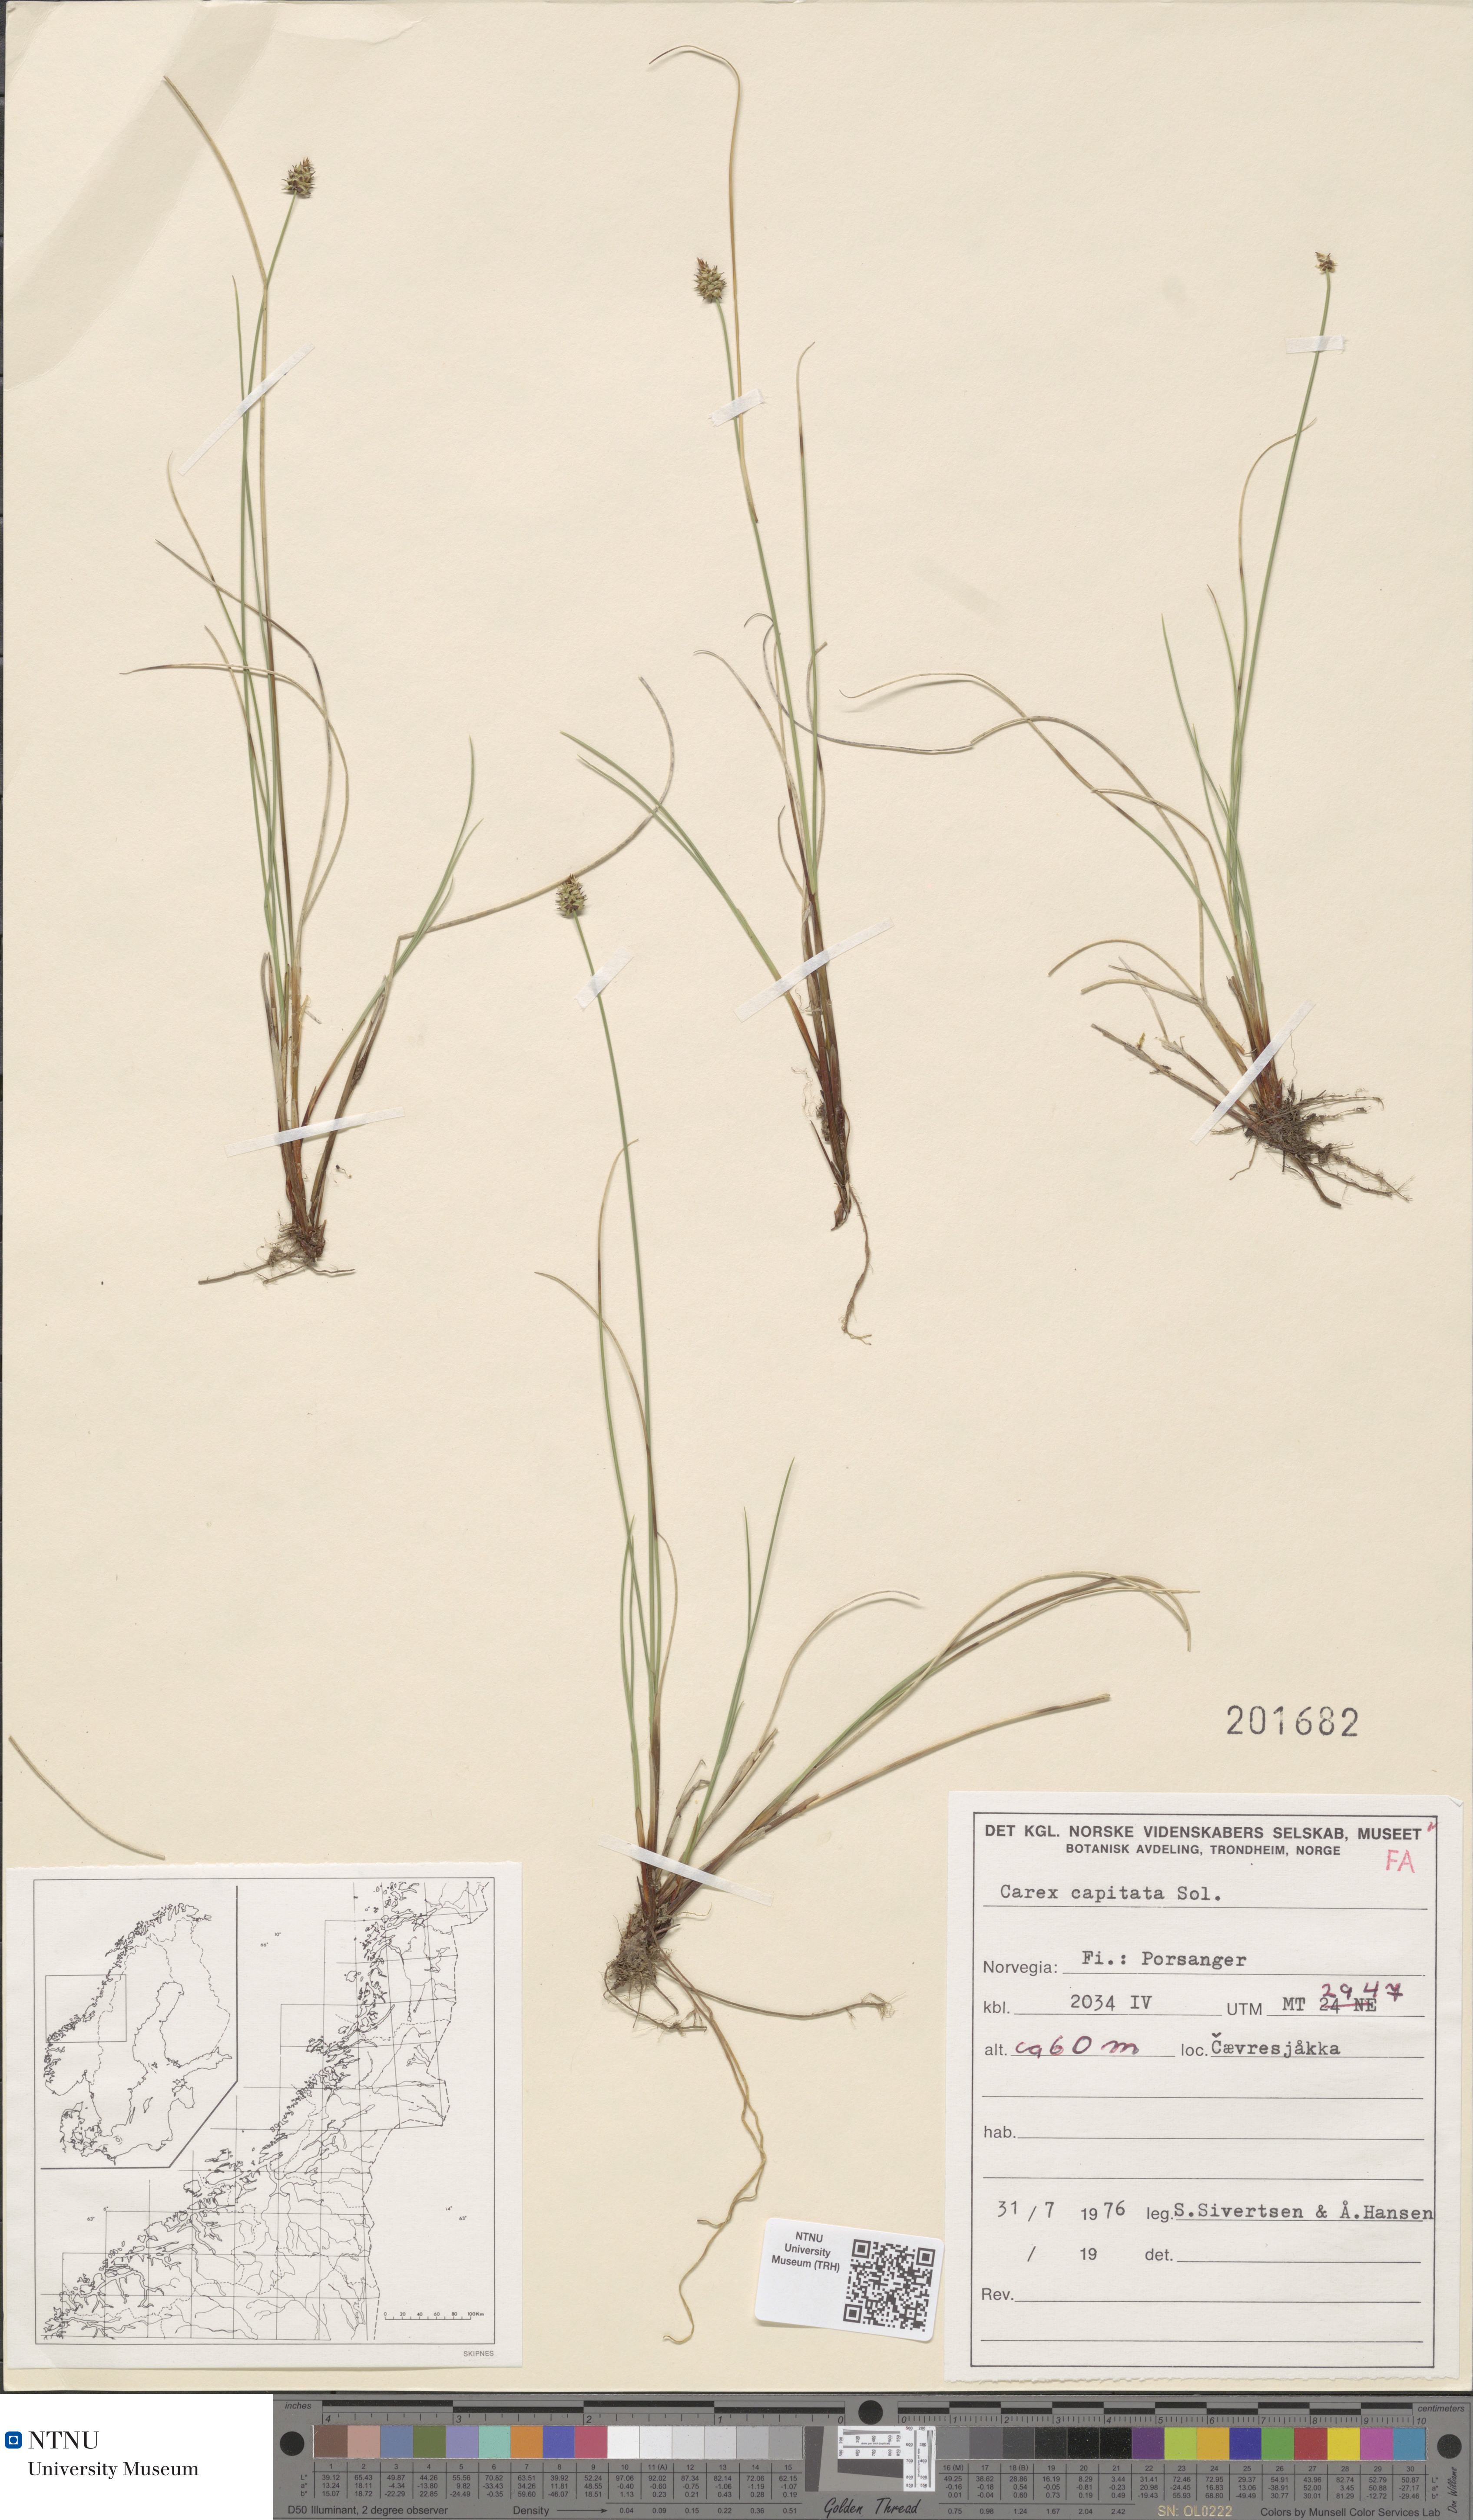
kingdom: Plantae
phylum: Tracheophyta
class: Liliopsida
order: Poales
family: Cyperaceae
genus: Carex
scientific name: Carex capitata
